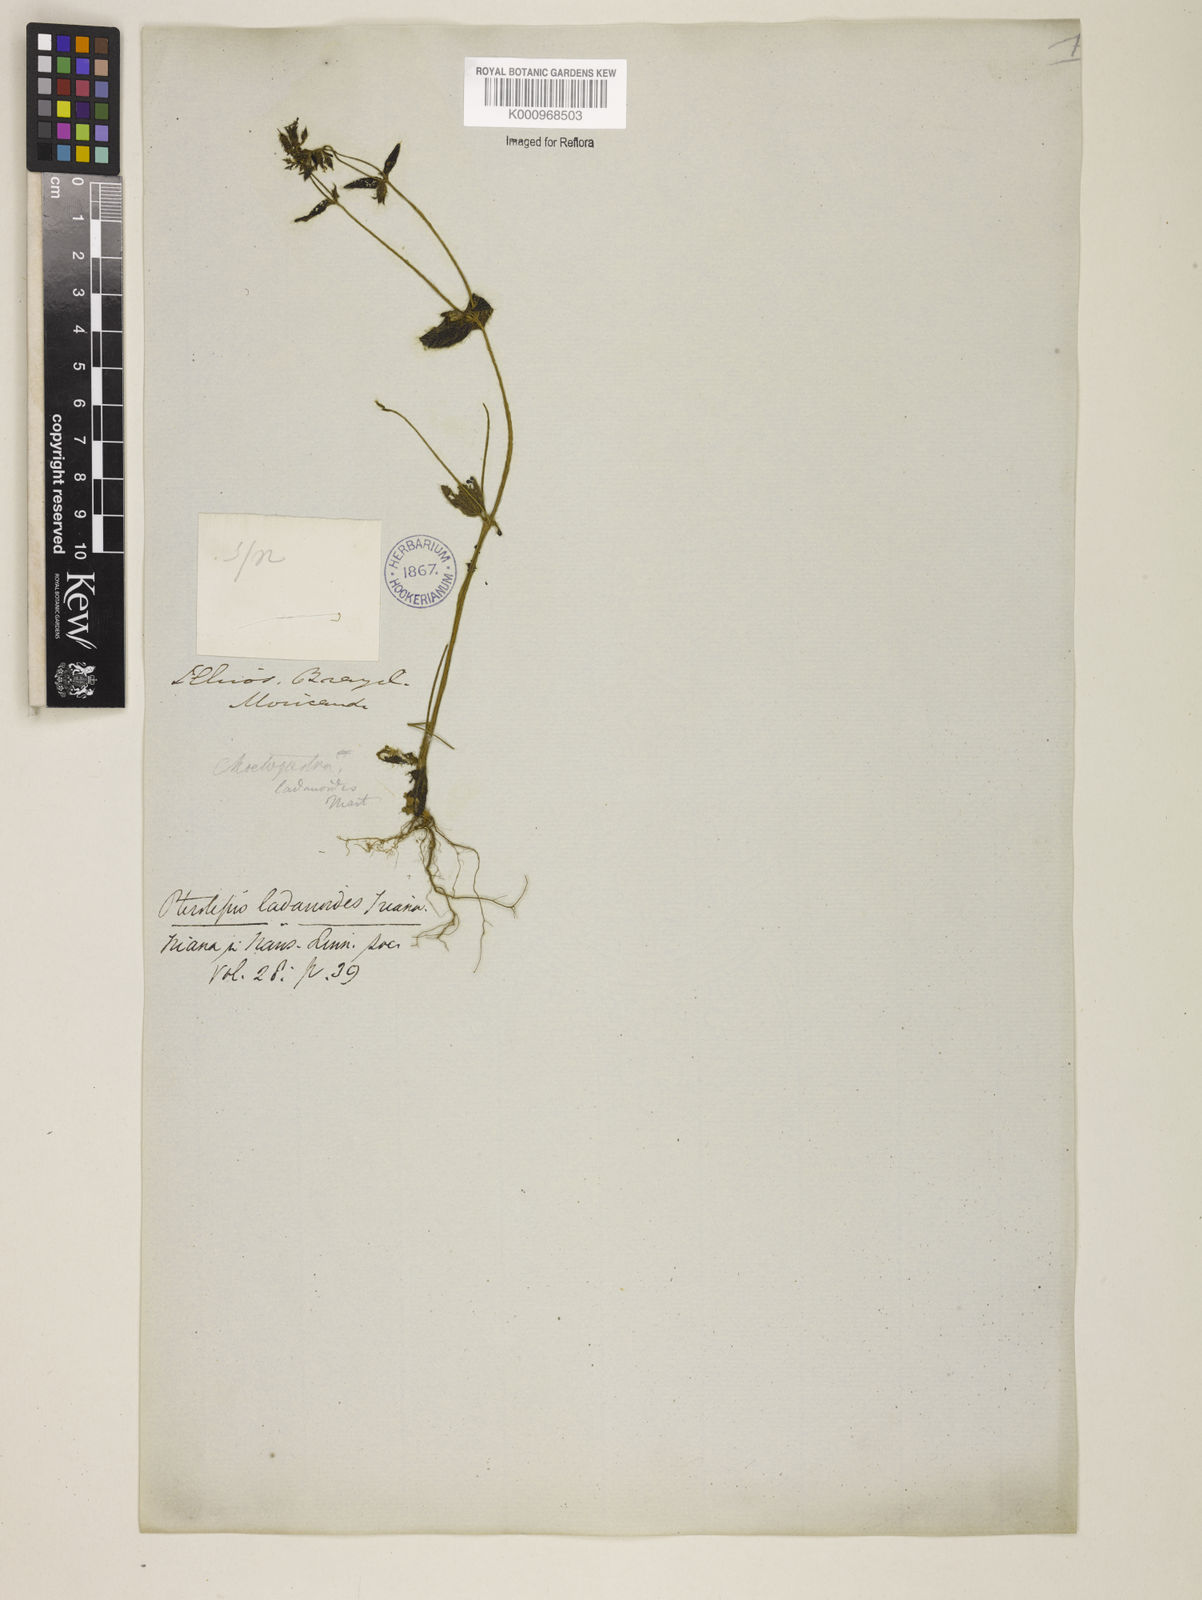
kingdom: Plantae
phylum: Tracheophyta
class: Magnoliopsida
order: Myrtales
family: Melastomataceae
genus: Pterolepis
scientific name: Pterolepis trichotoma
